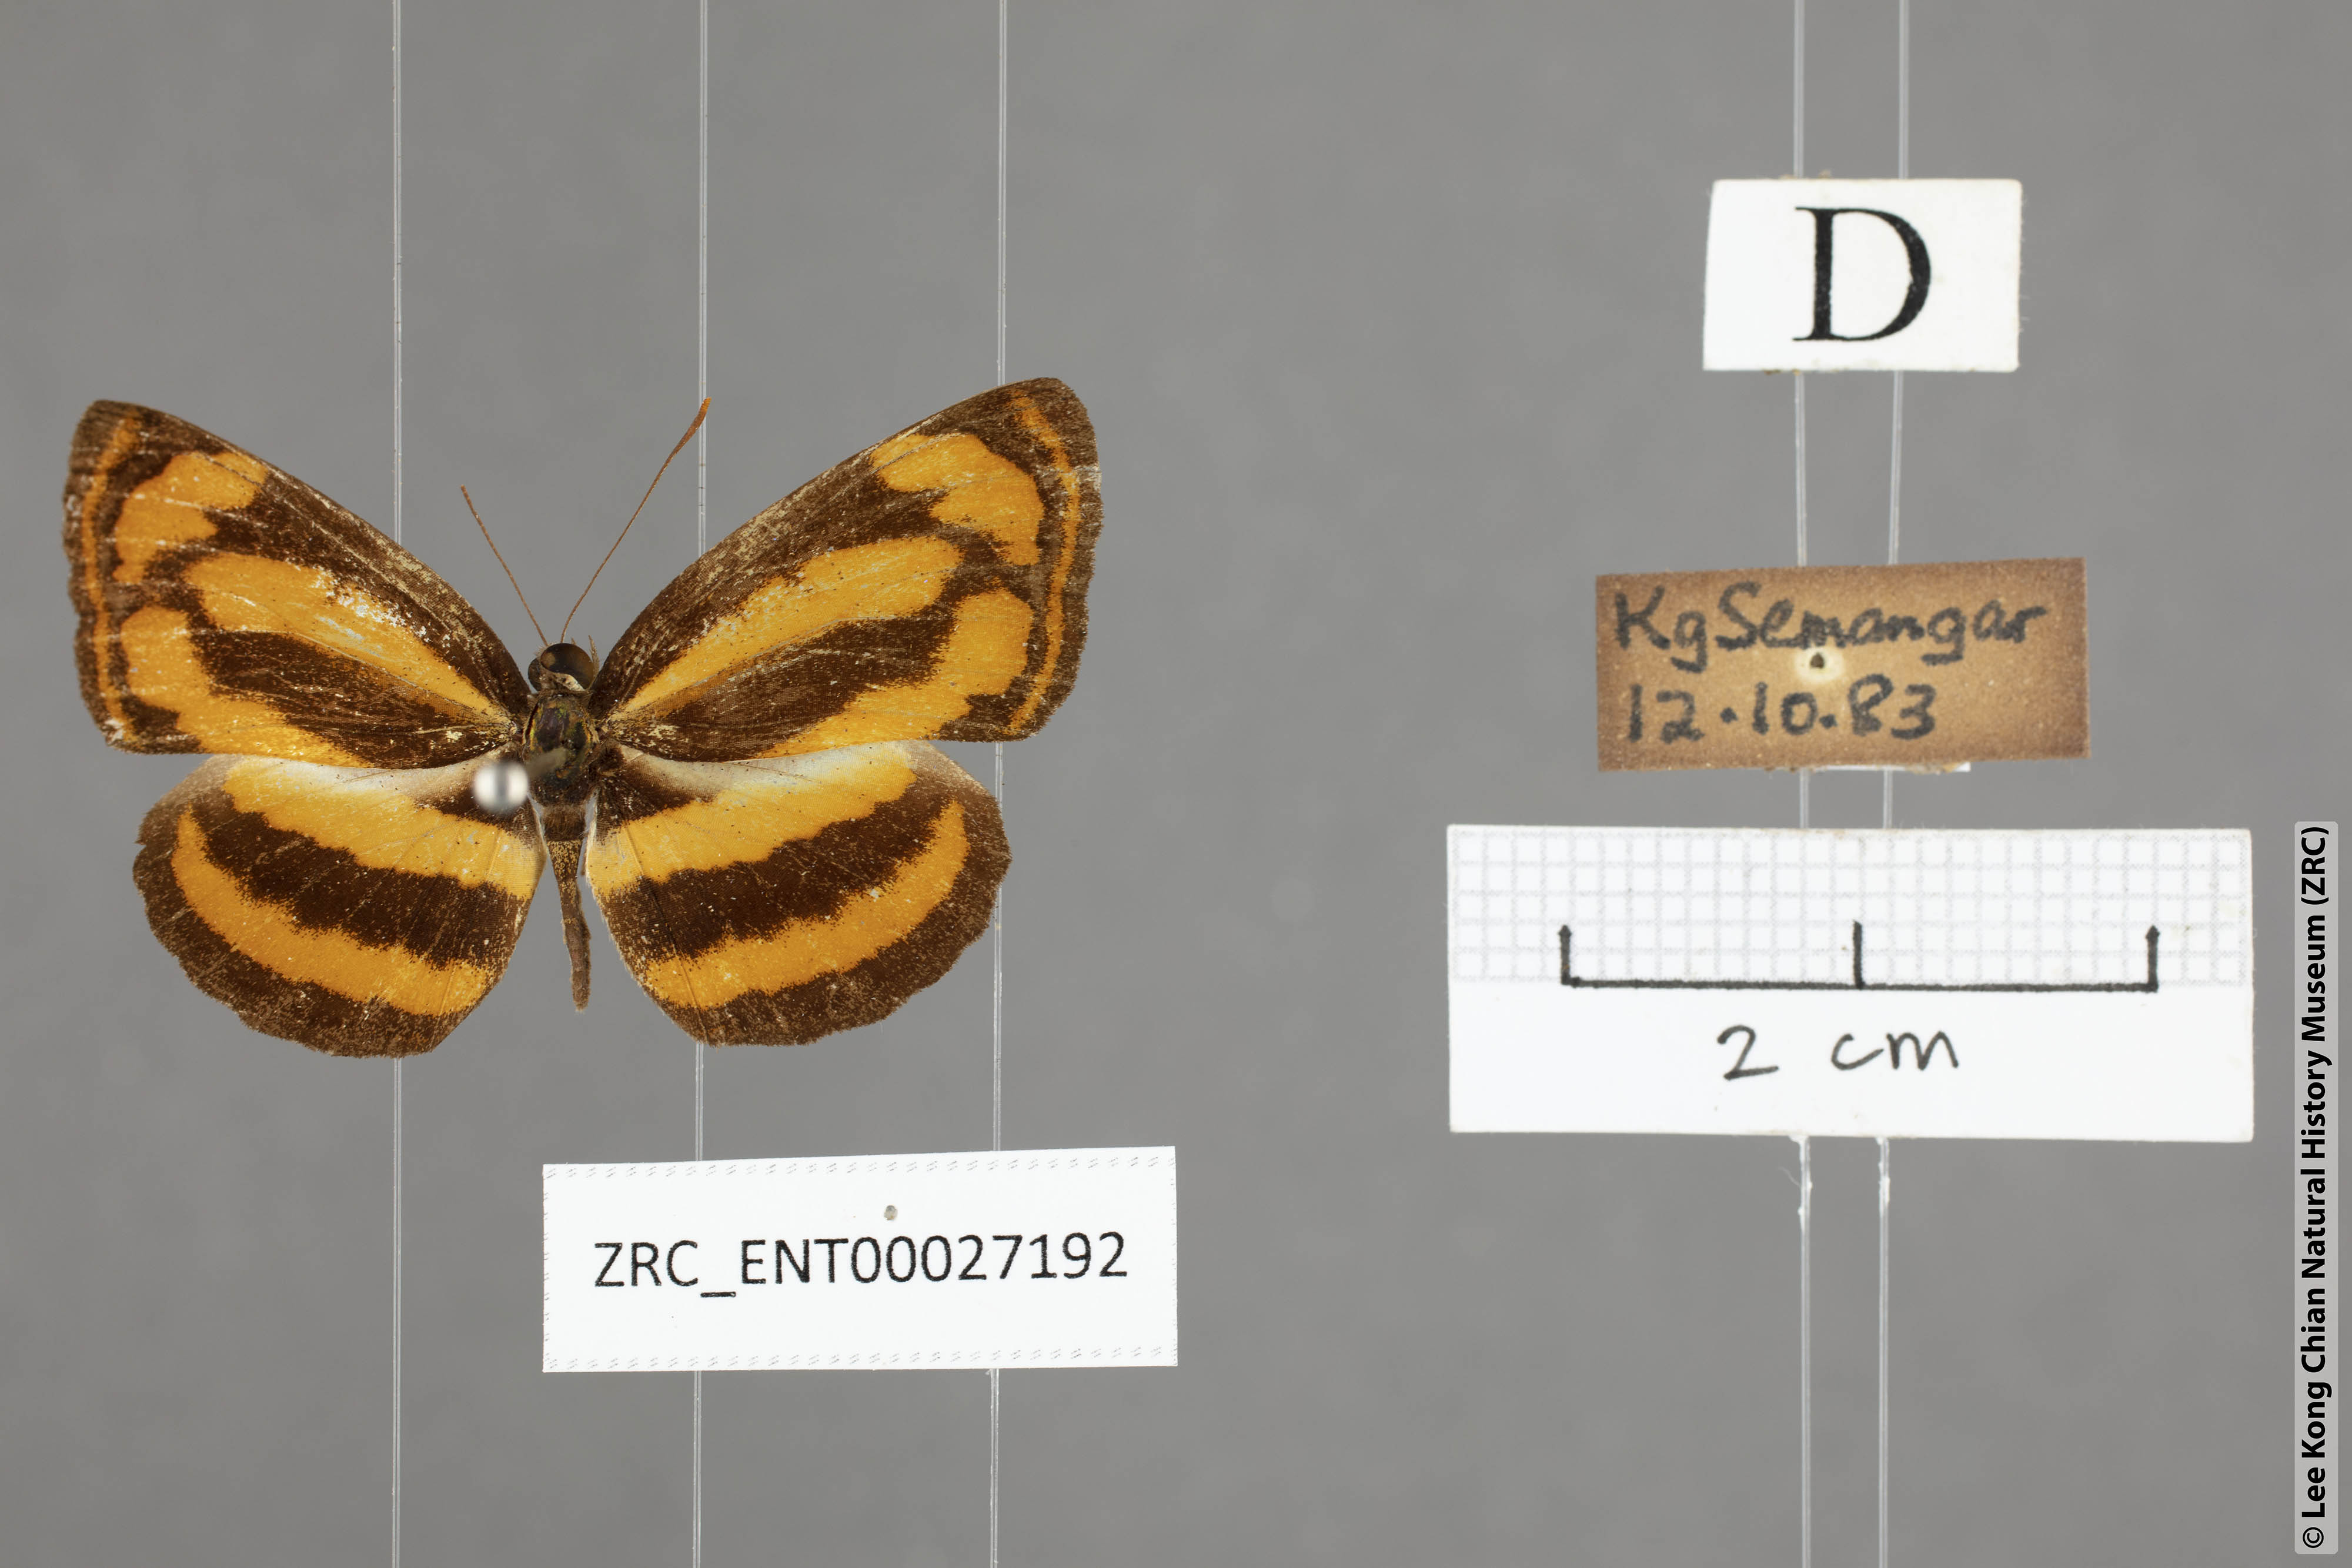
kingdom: Animalia
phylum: Arthropoda
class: Insecta
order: Lepidoptera
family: Nymphalidae
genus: Pantoporia
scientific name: Pantoporia sandaka
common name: Extra lascar
